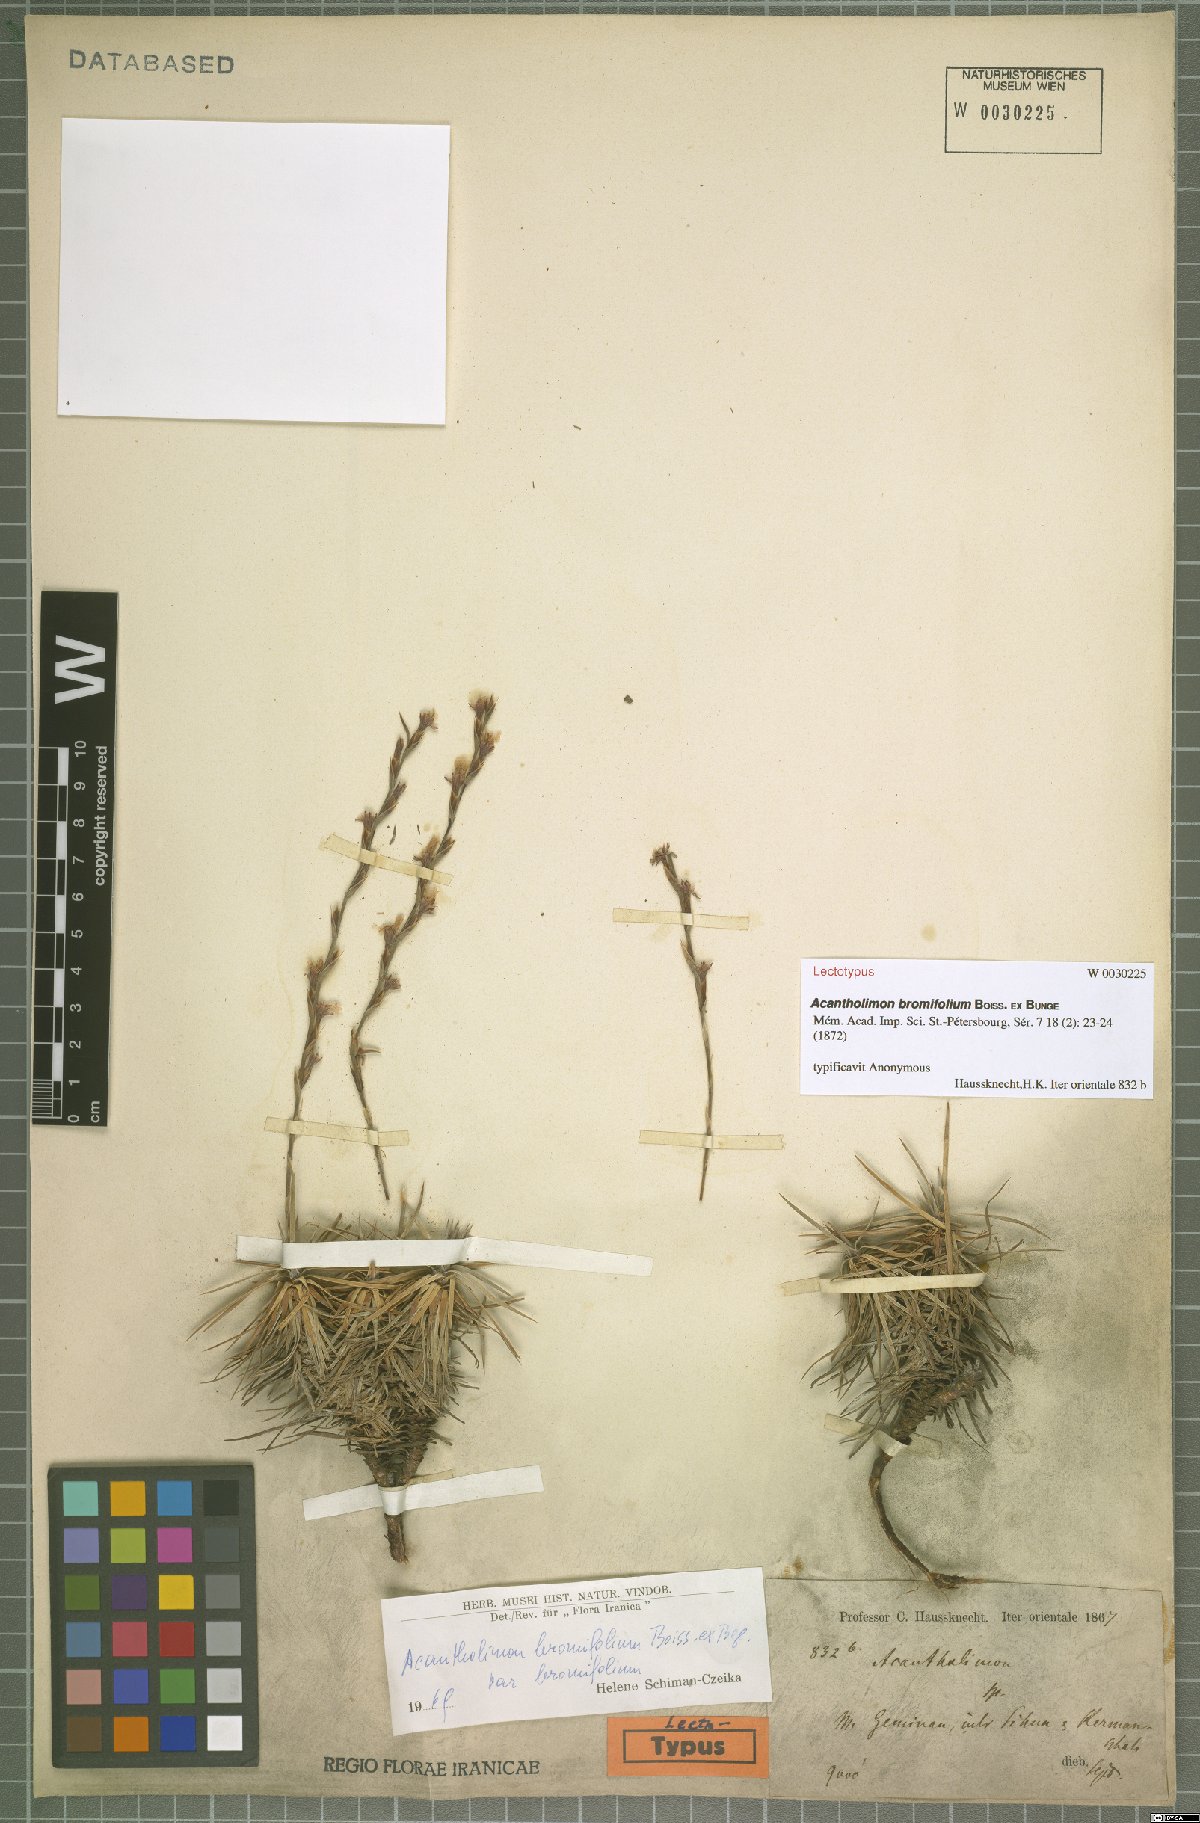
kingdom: Plantae
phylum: Tracheophyta
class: Magnoliopsida
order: Caryophyllales
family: Plumbaginaceae
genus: Acantholimon
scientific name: Acantholimon bromifolium
